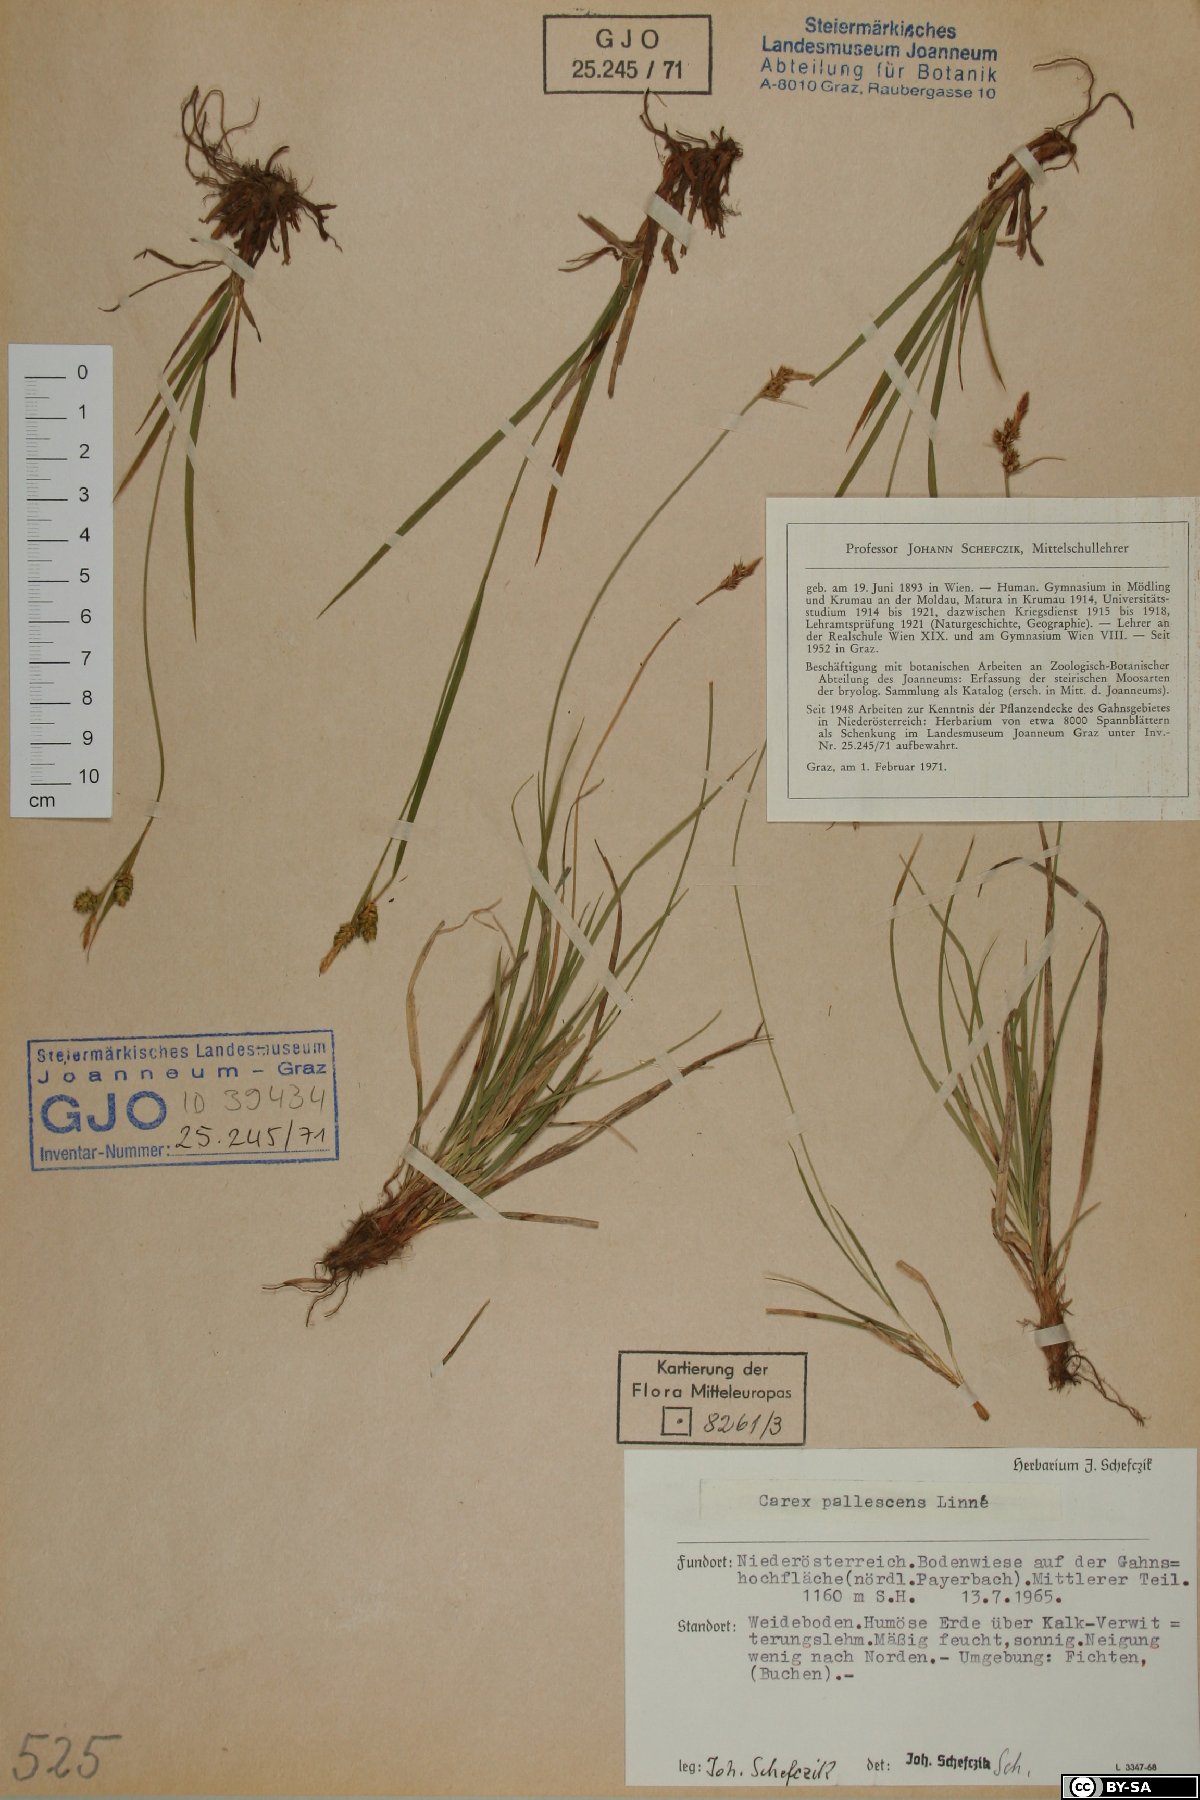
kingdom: Plantae
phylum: Tracheophyta
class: Liliopsida
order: Poales
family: Cyperaceae
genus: Carex
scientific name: Carex pallescens
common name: Pale sedge
